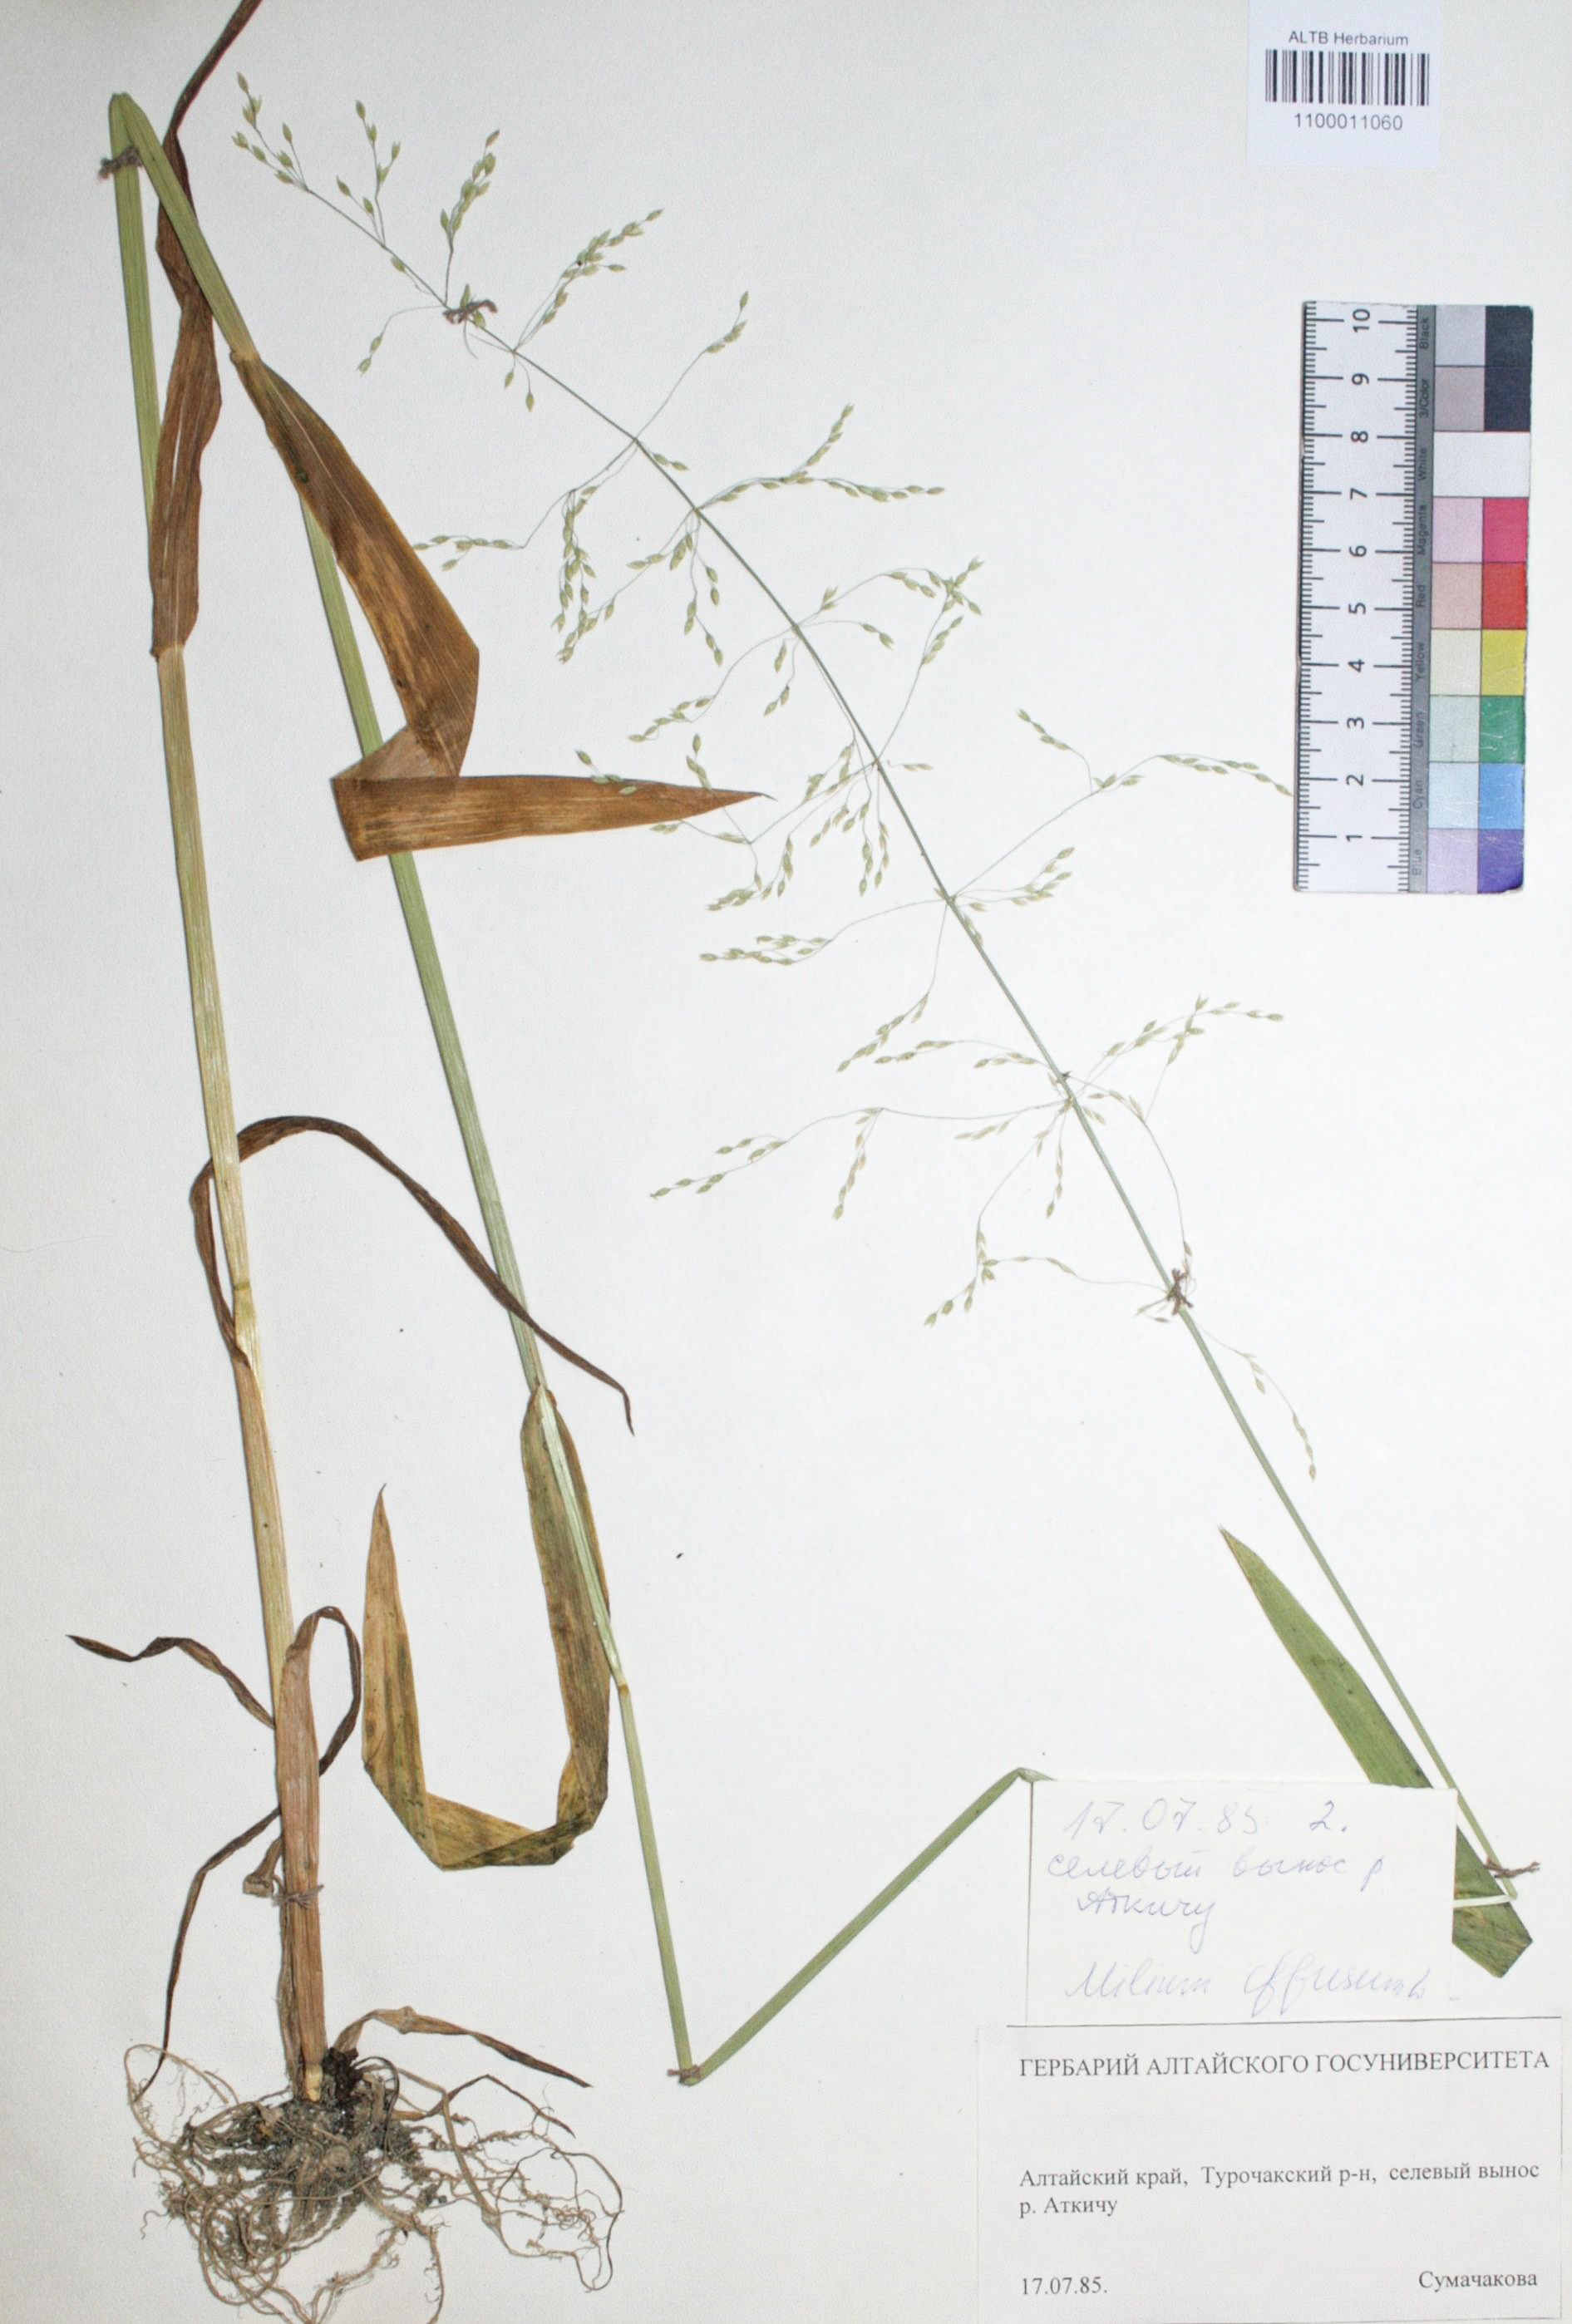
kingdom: Plantae
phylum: Tracheophyta
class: Liliopsida
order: Poales
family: Poaceae
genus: Milium
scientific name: Milium effusum
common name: Wood millet
